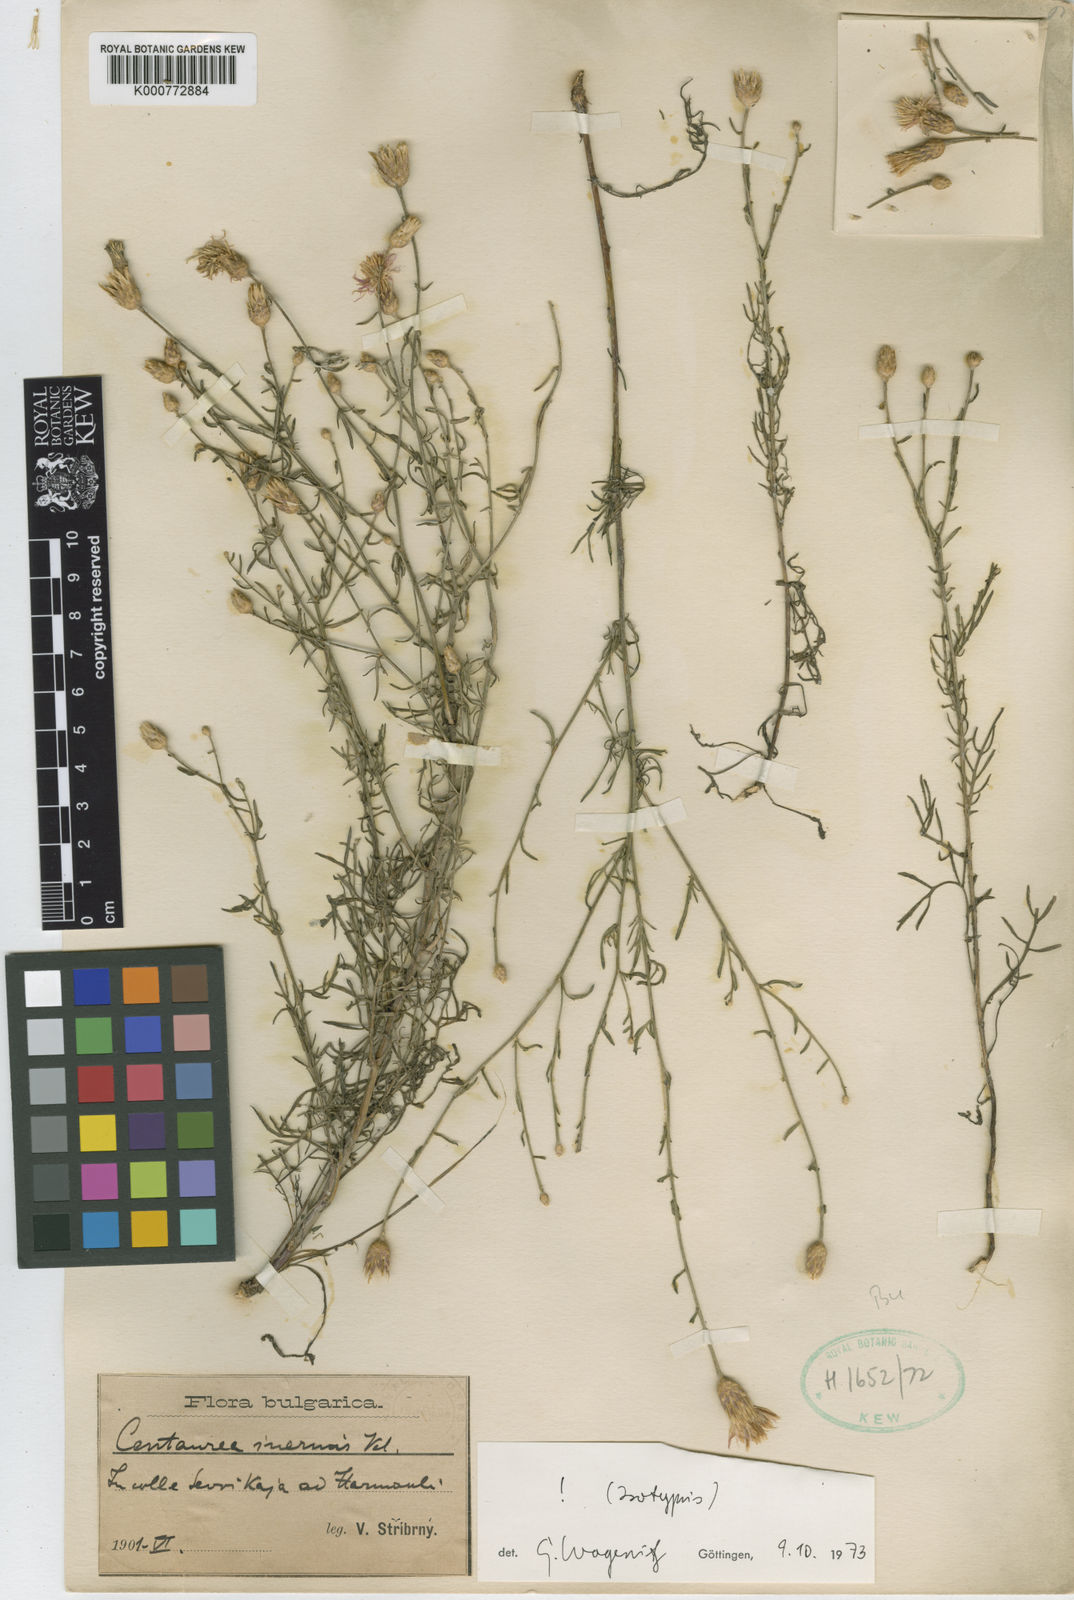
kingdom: Plantae
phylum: Tracheophyta
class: Magnoliopsida
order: Asterales
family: Asteraceae
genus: Centaurea
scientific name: Centaurea inermis
